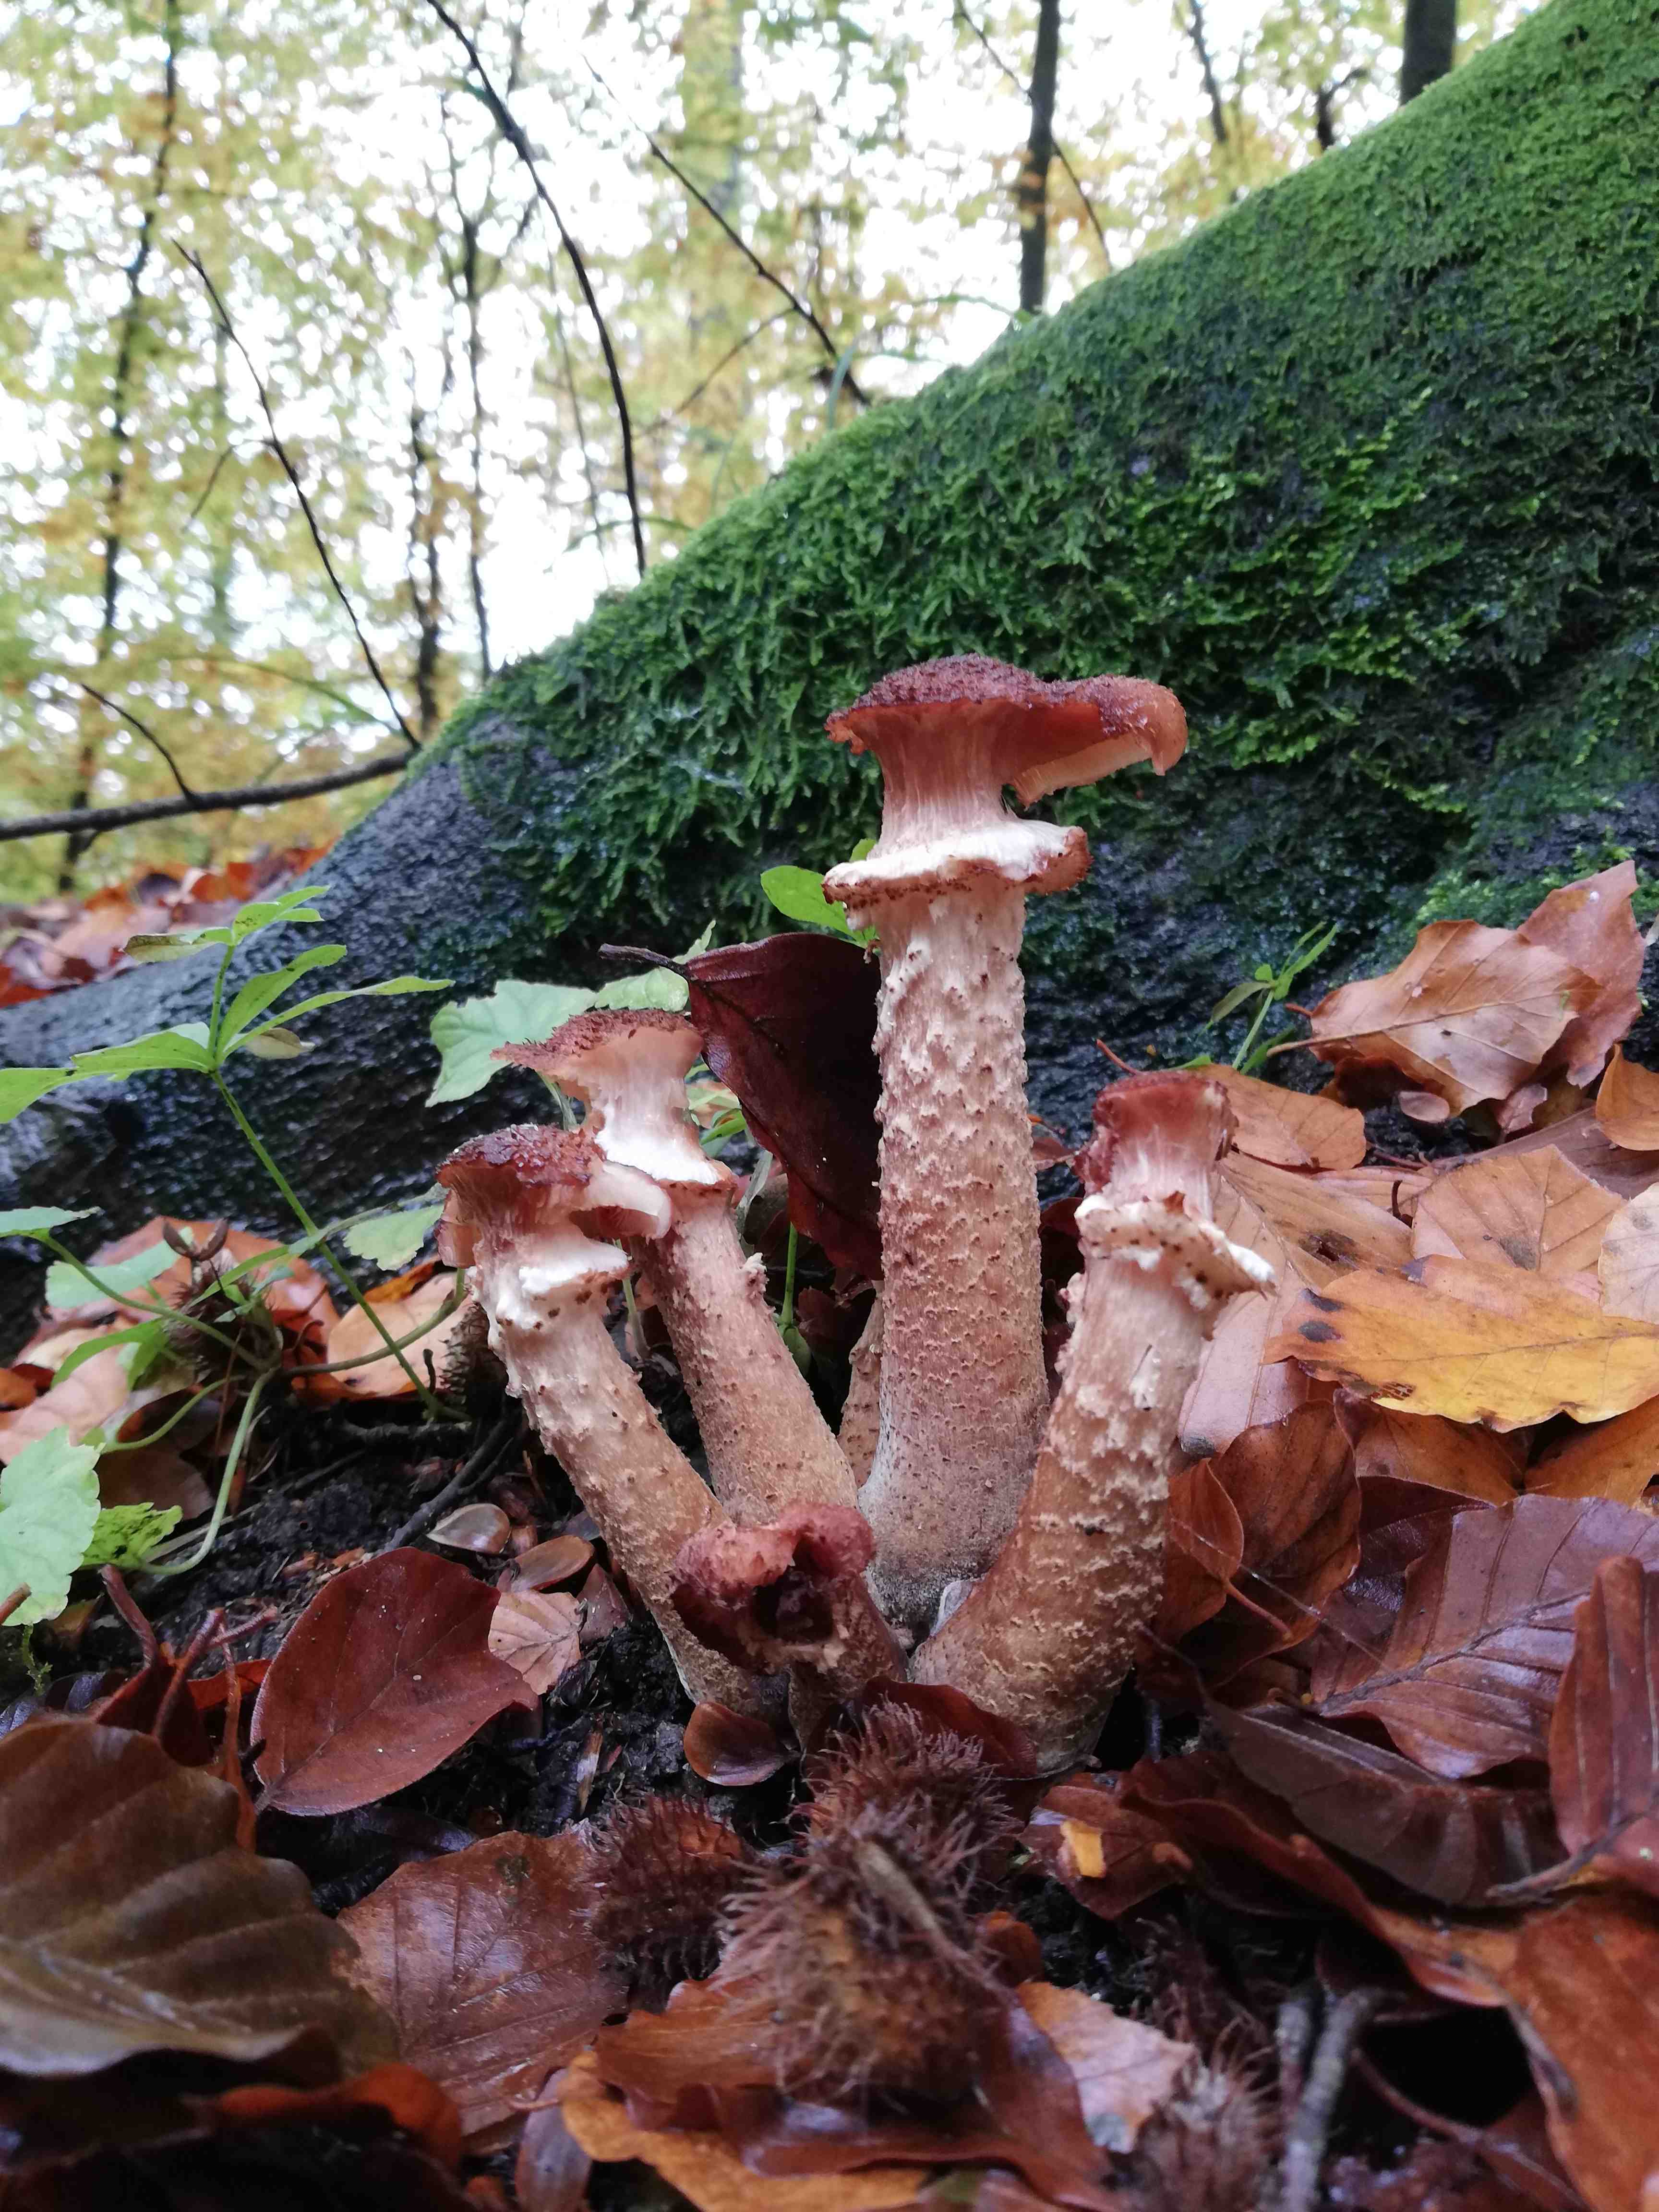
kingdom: Fungi
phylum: Basidiomycota
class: Agaricomycetes
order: Agaricales
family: Physalacriaceae
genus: Armillaria
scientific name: Armillaria lutea
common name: køllestokket honningsvamp
